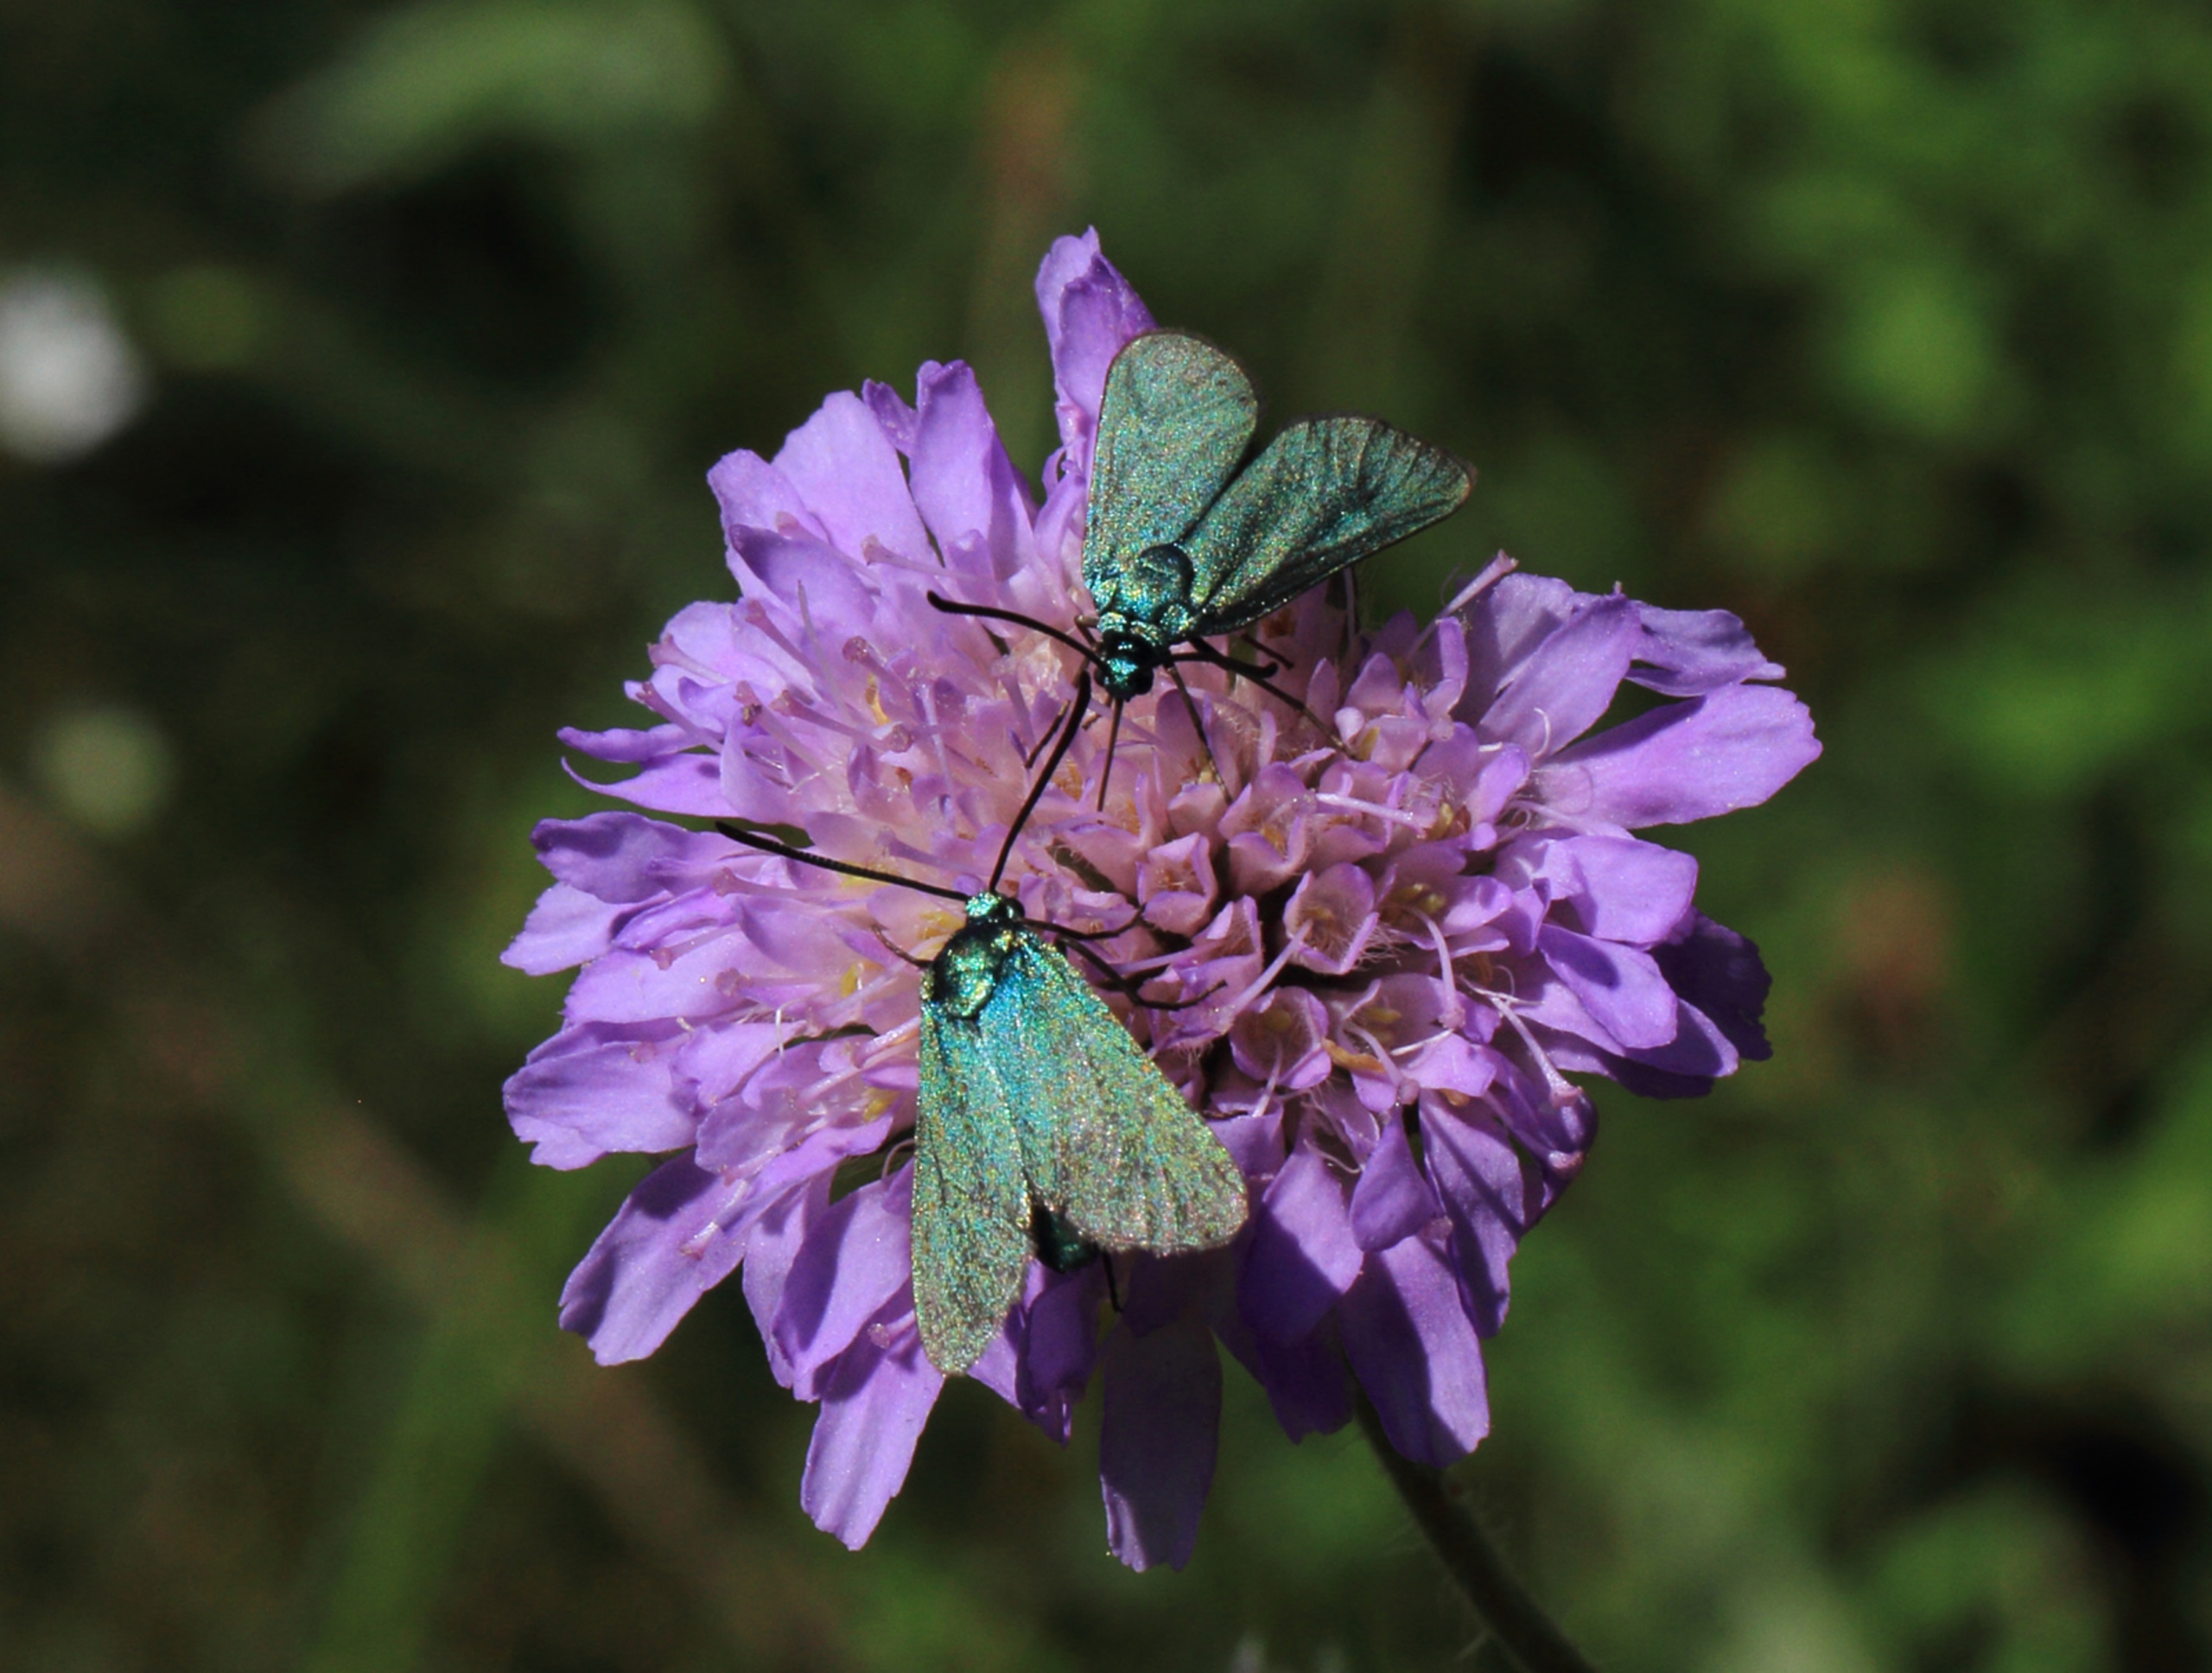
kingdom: Animalia
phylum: Arthropoda
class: Insecta
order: Lepidoptera
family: Zygaenidae
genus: Adscita
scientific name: Adscita statices
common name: Metalvinge
